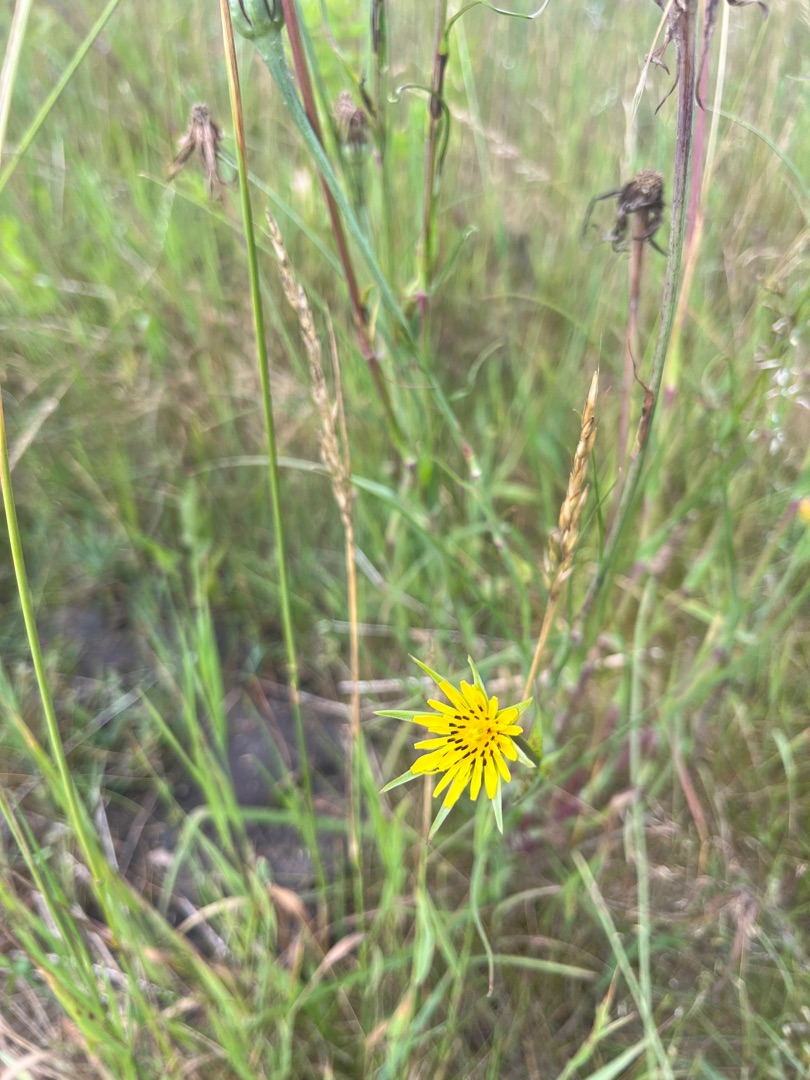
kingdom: Plantae
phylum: Tracheophyta
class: Magnoliopsida
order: Asterales
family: Asteraceae
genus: Tragopogon
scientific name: Tragopogon minor
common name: Småkronet gedeskæg
